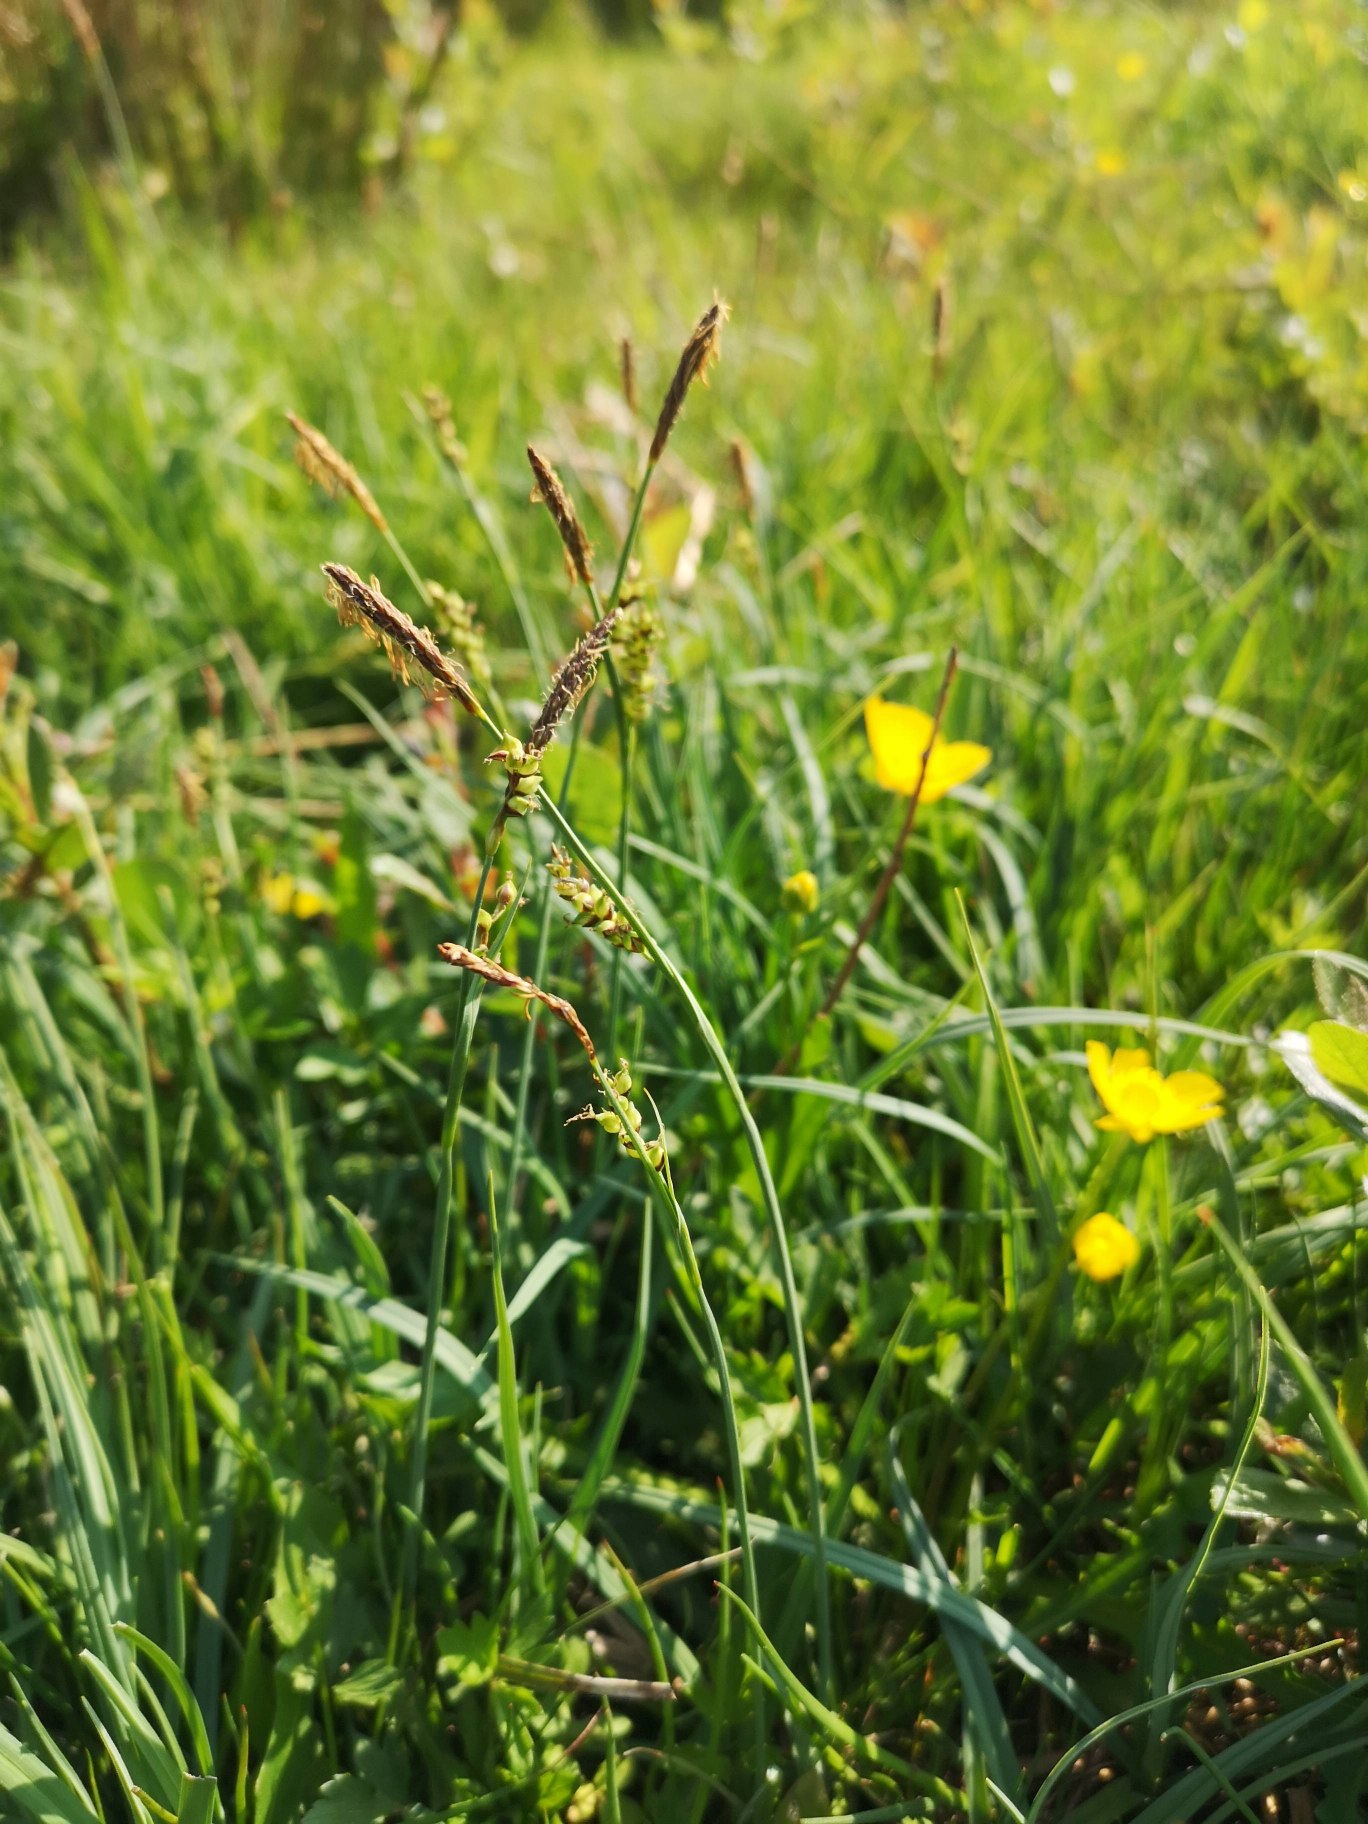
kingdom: Plantae
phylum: Tracheophyta
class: Liliopsida
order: Poales
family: Cyperaceae
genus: Carex
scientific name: Carex panicea
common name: Hirse-star
